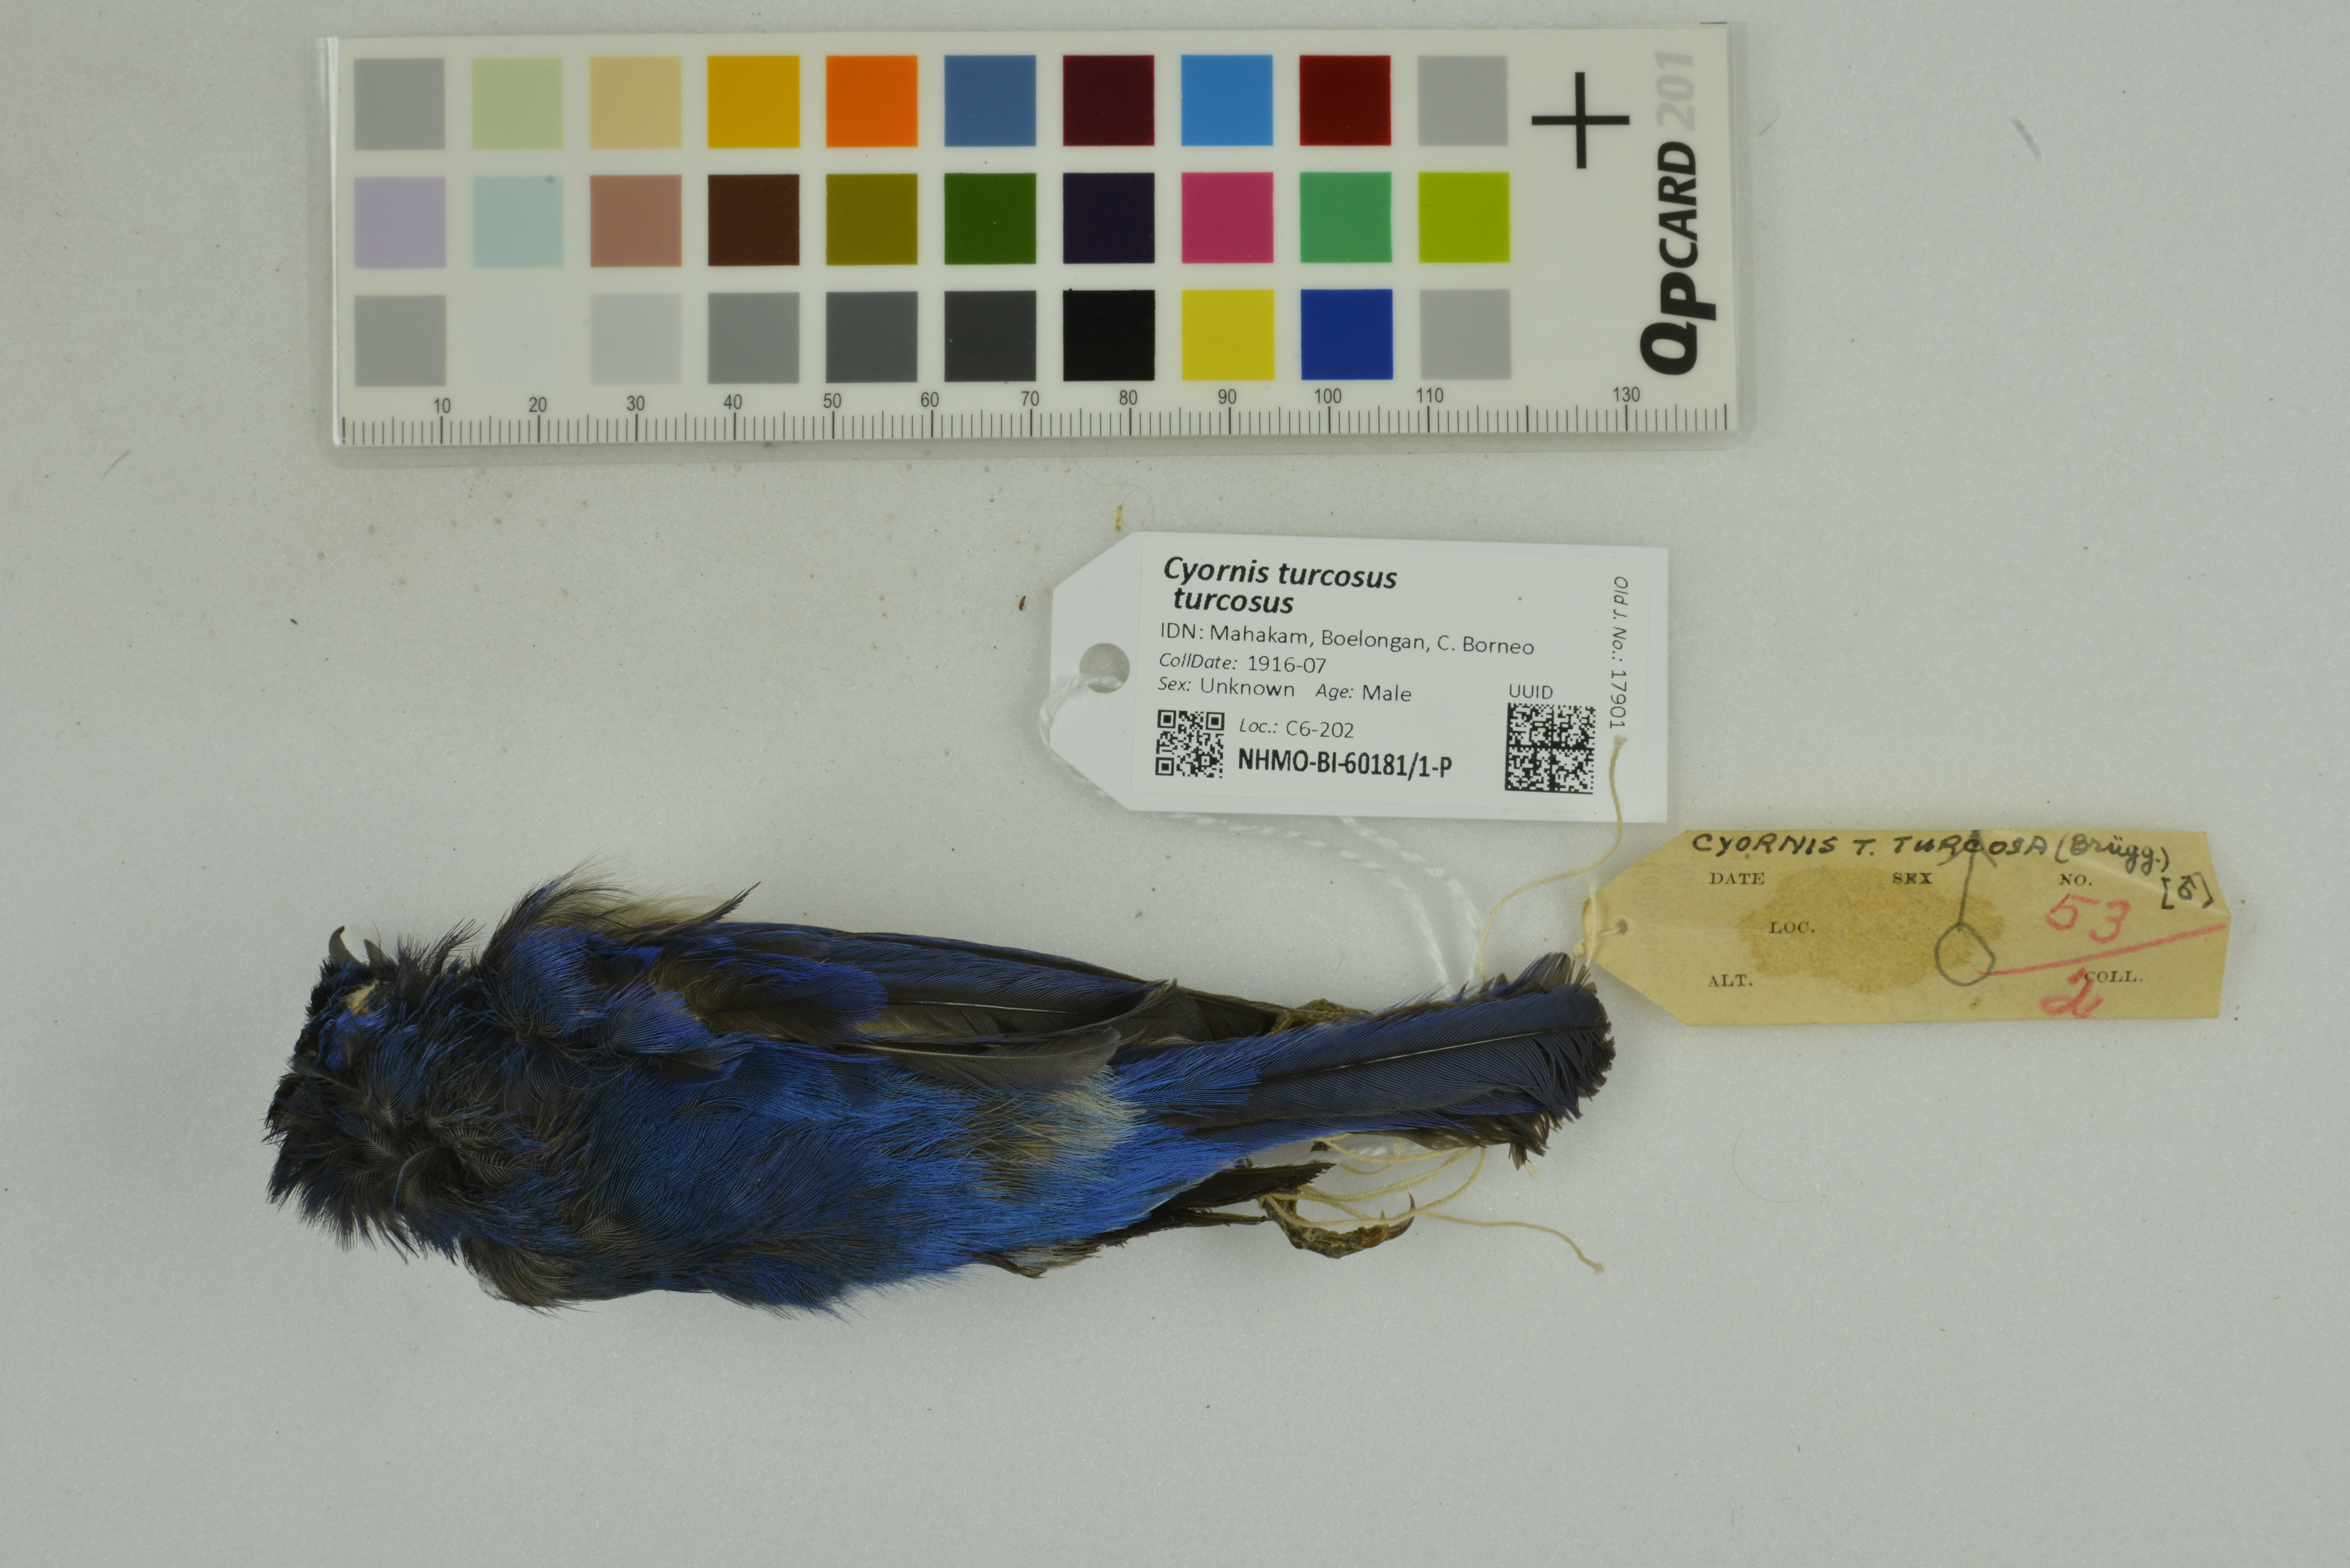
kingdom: Animalia
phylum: Chordata
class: Aves
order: Passeriformes
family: Muscicapidae
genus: Cyornis
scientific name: Cyornis turcosus
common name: Malaysian blue flycatcher
